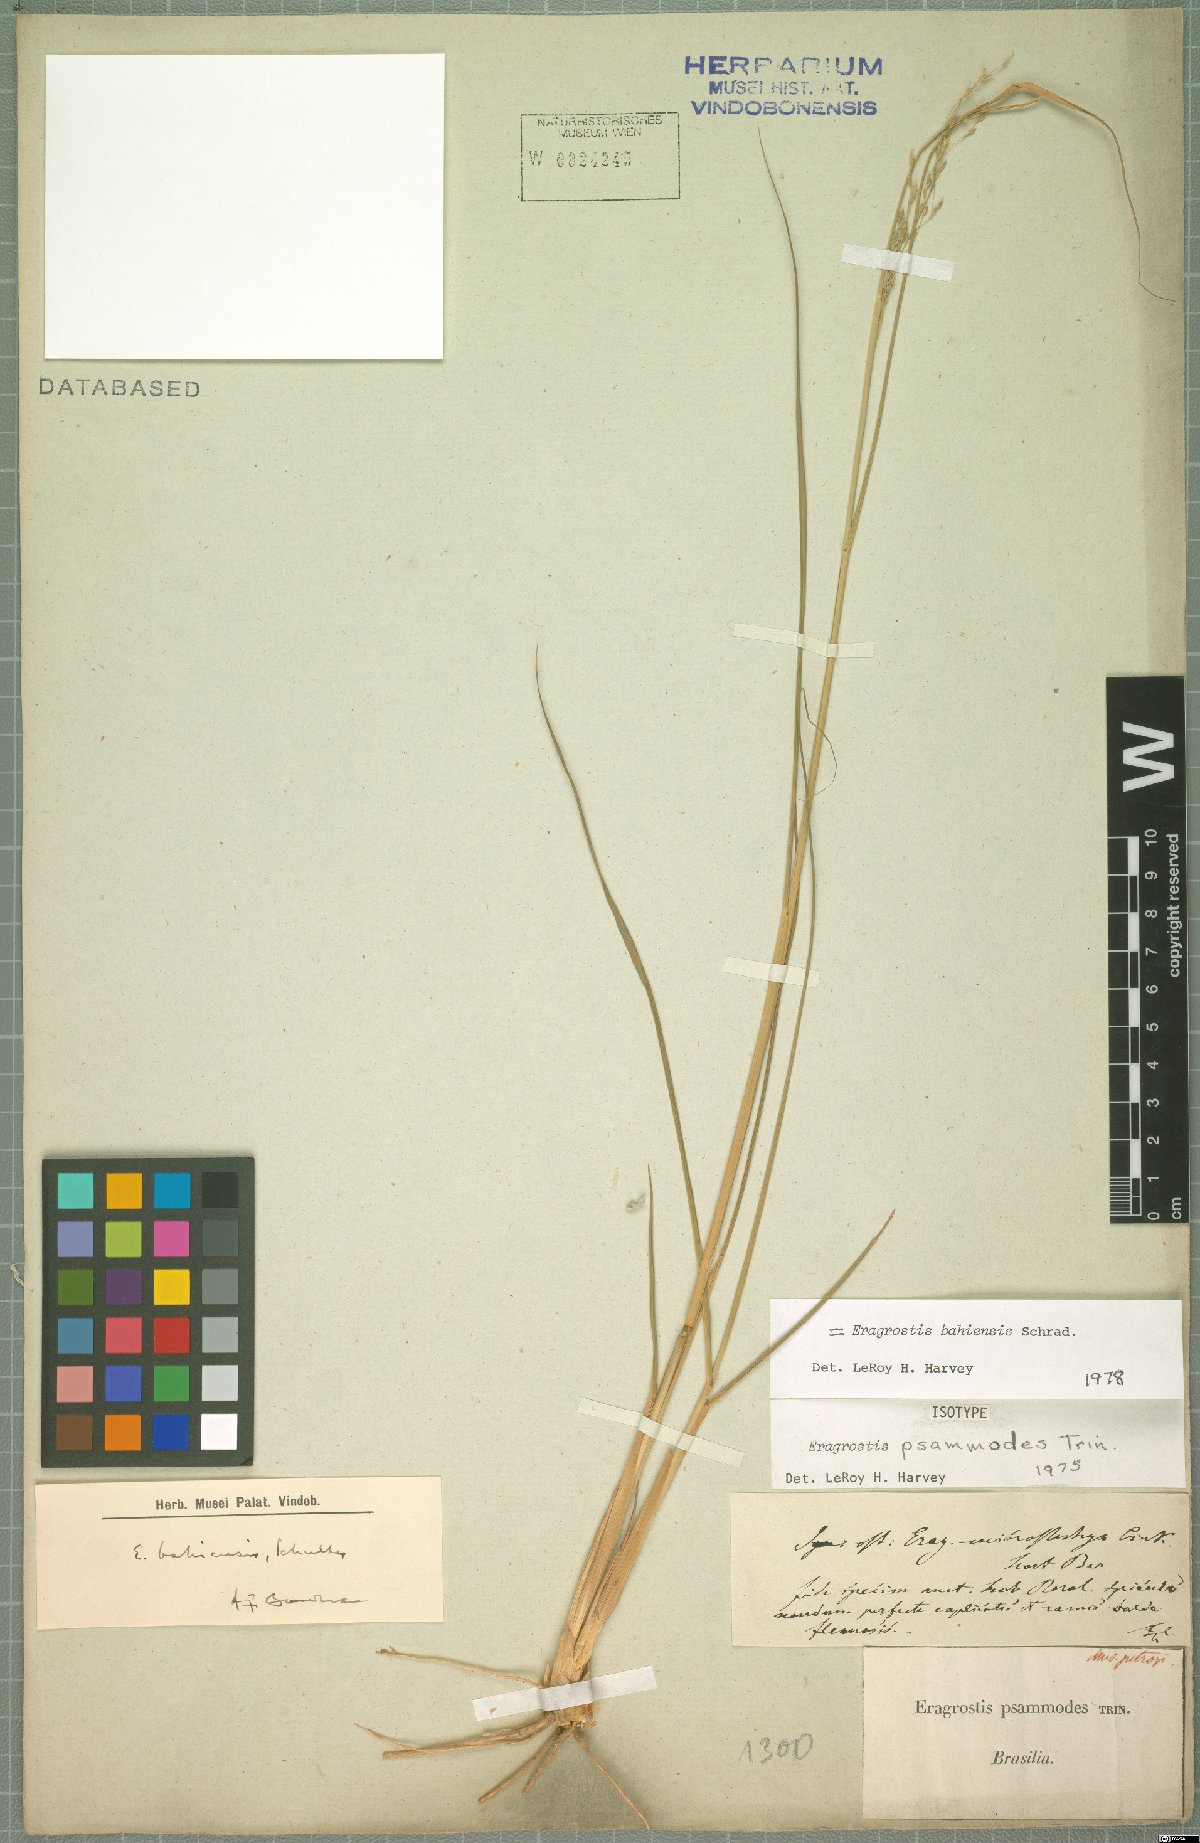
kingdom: Plantae
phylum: Tracheophyta
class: Liliopsida
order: Poales
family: Poaceae
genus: Eragrostis
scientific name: Eragrostis bahiensis
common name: Bahia lovegrass
